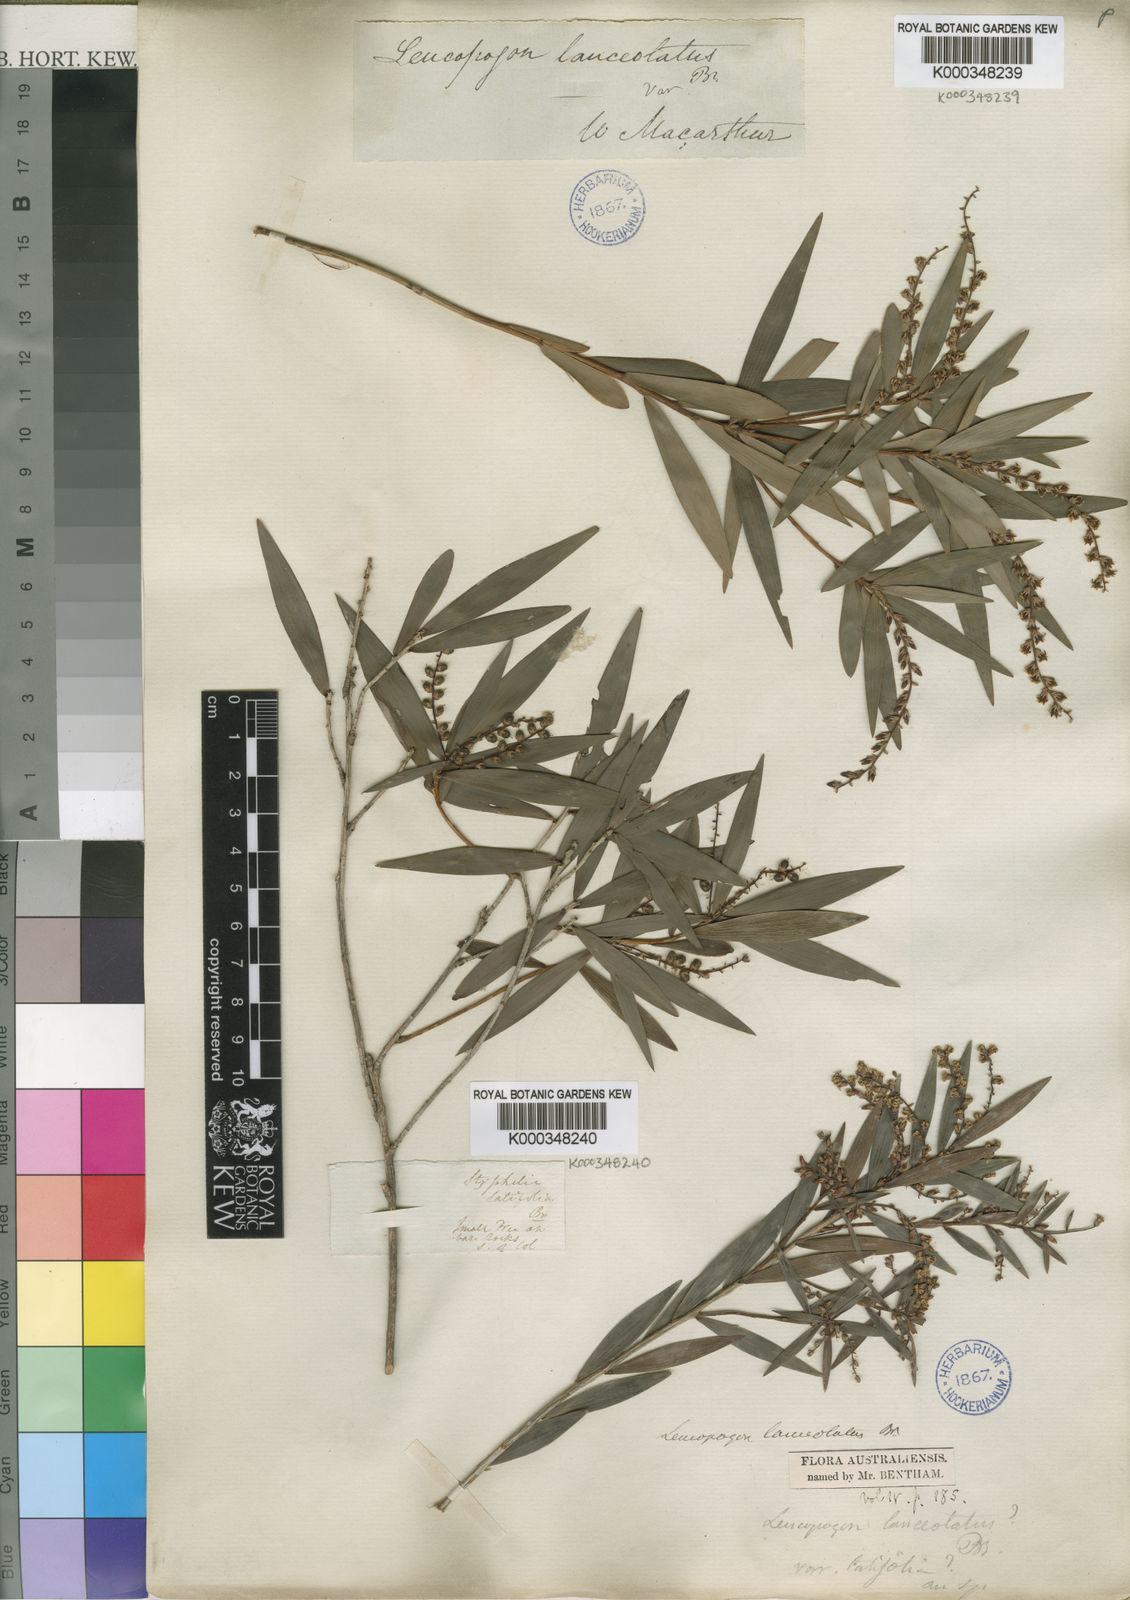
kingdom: Plantae
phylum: Tracheophyta
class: Magnoliopsida
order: Ericales
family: Ericaceae
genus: Leucopogon
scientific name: Leucopogon lanceolatus
